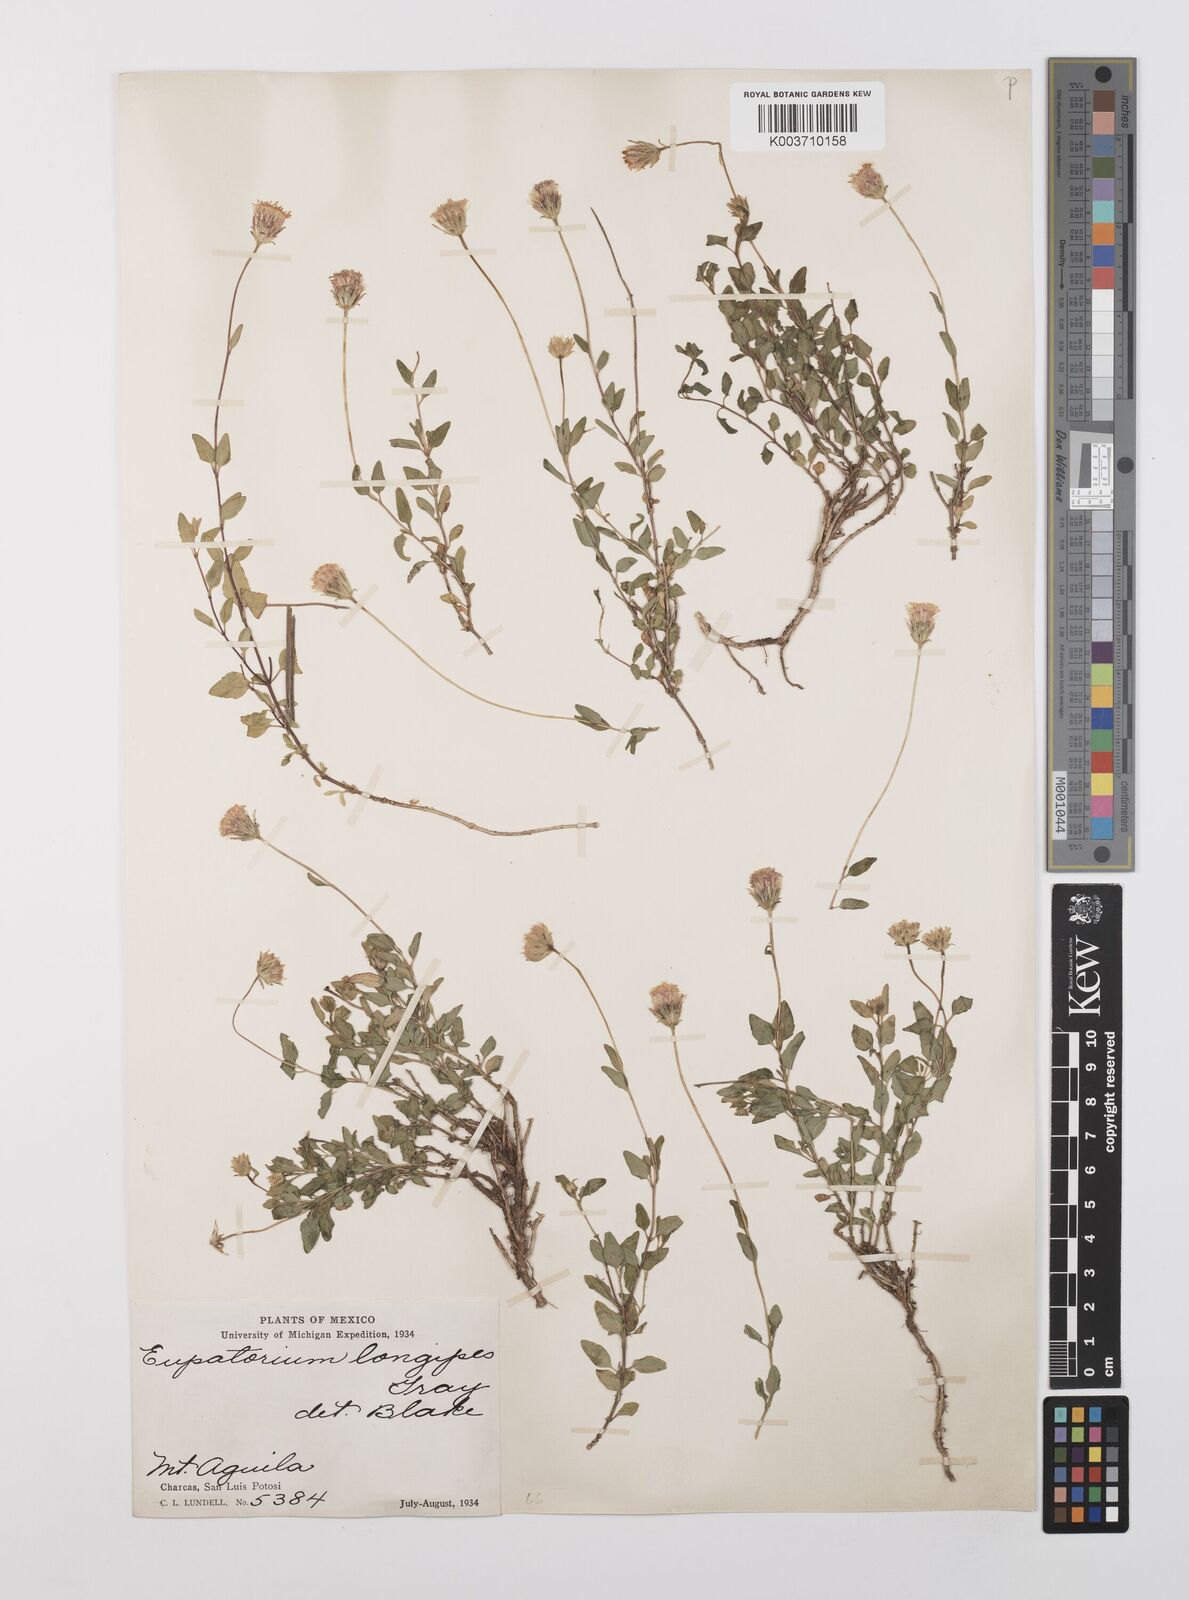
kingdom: Plantae
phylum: Tracheophyta
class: Magnoliopsida
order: Asterales
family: Asteraceae
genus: Brickellia
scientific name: Brickellia pedunculosa
